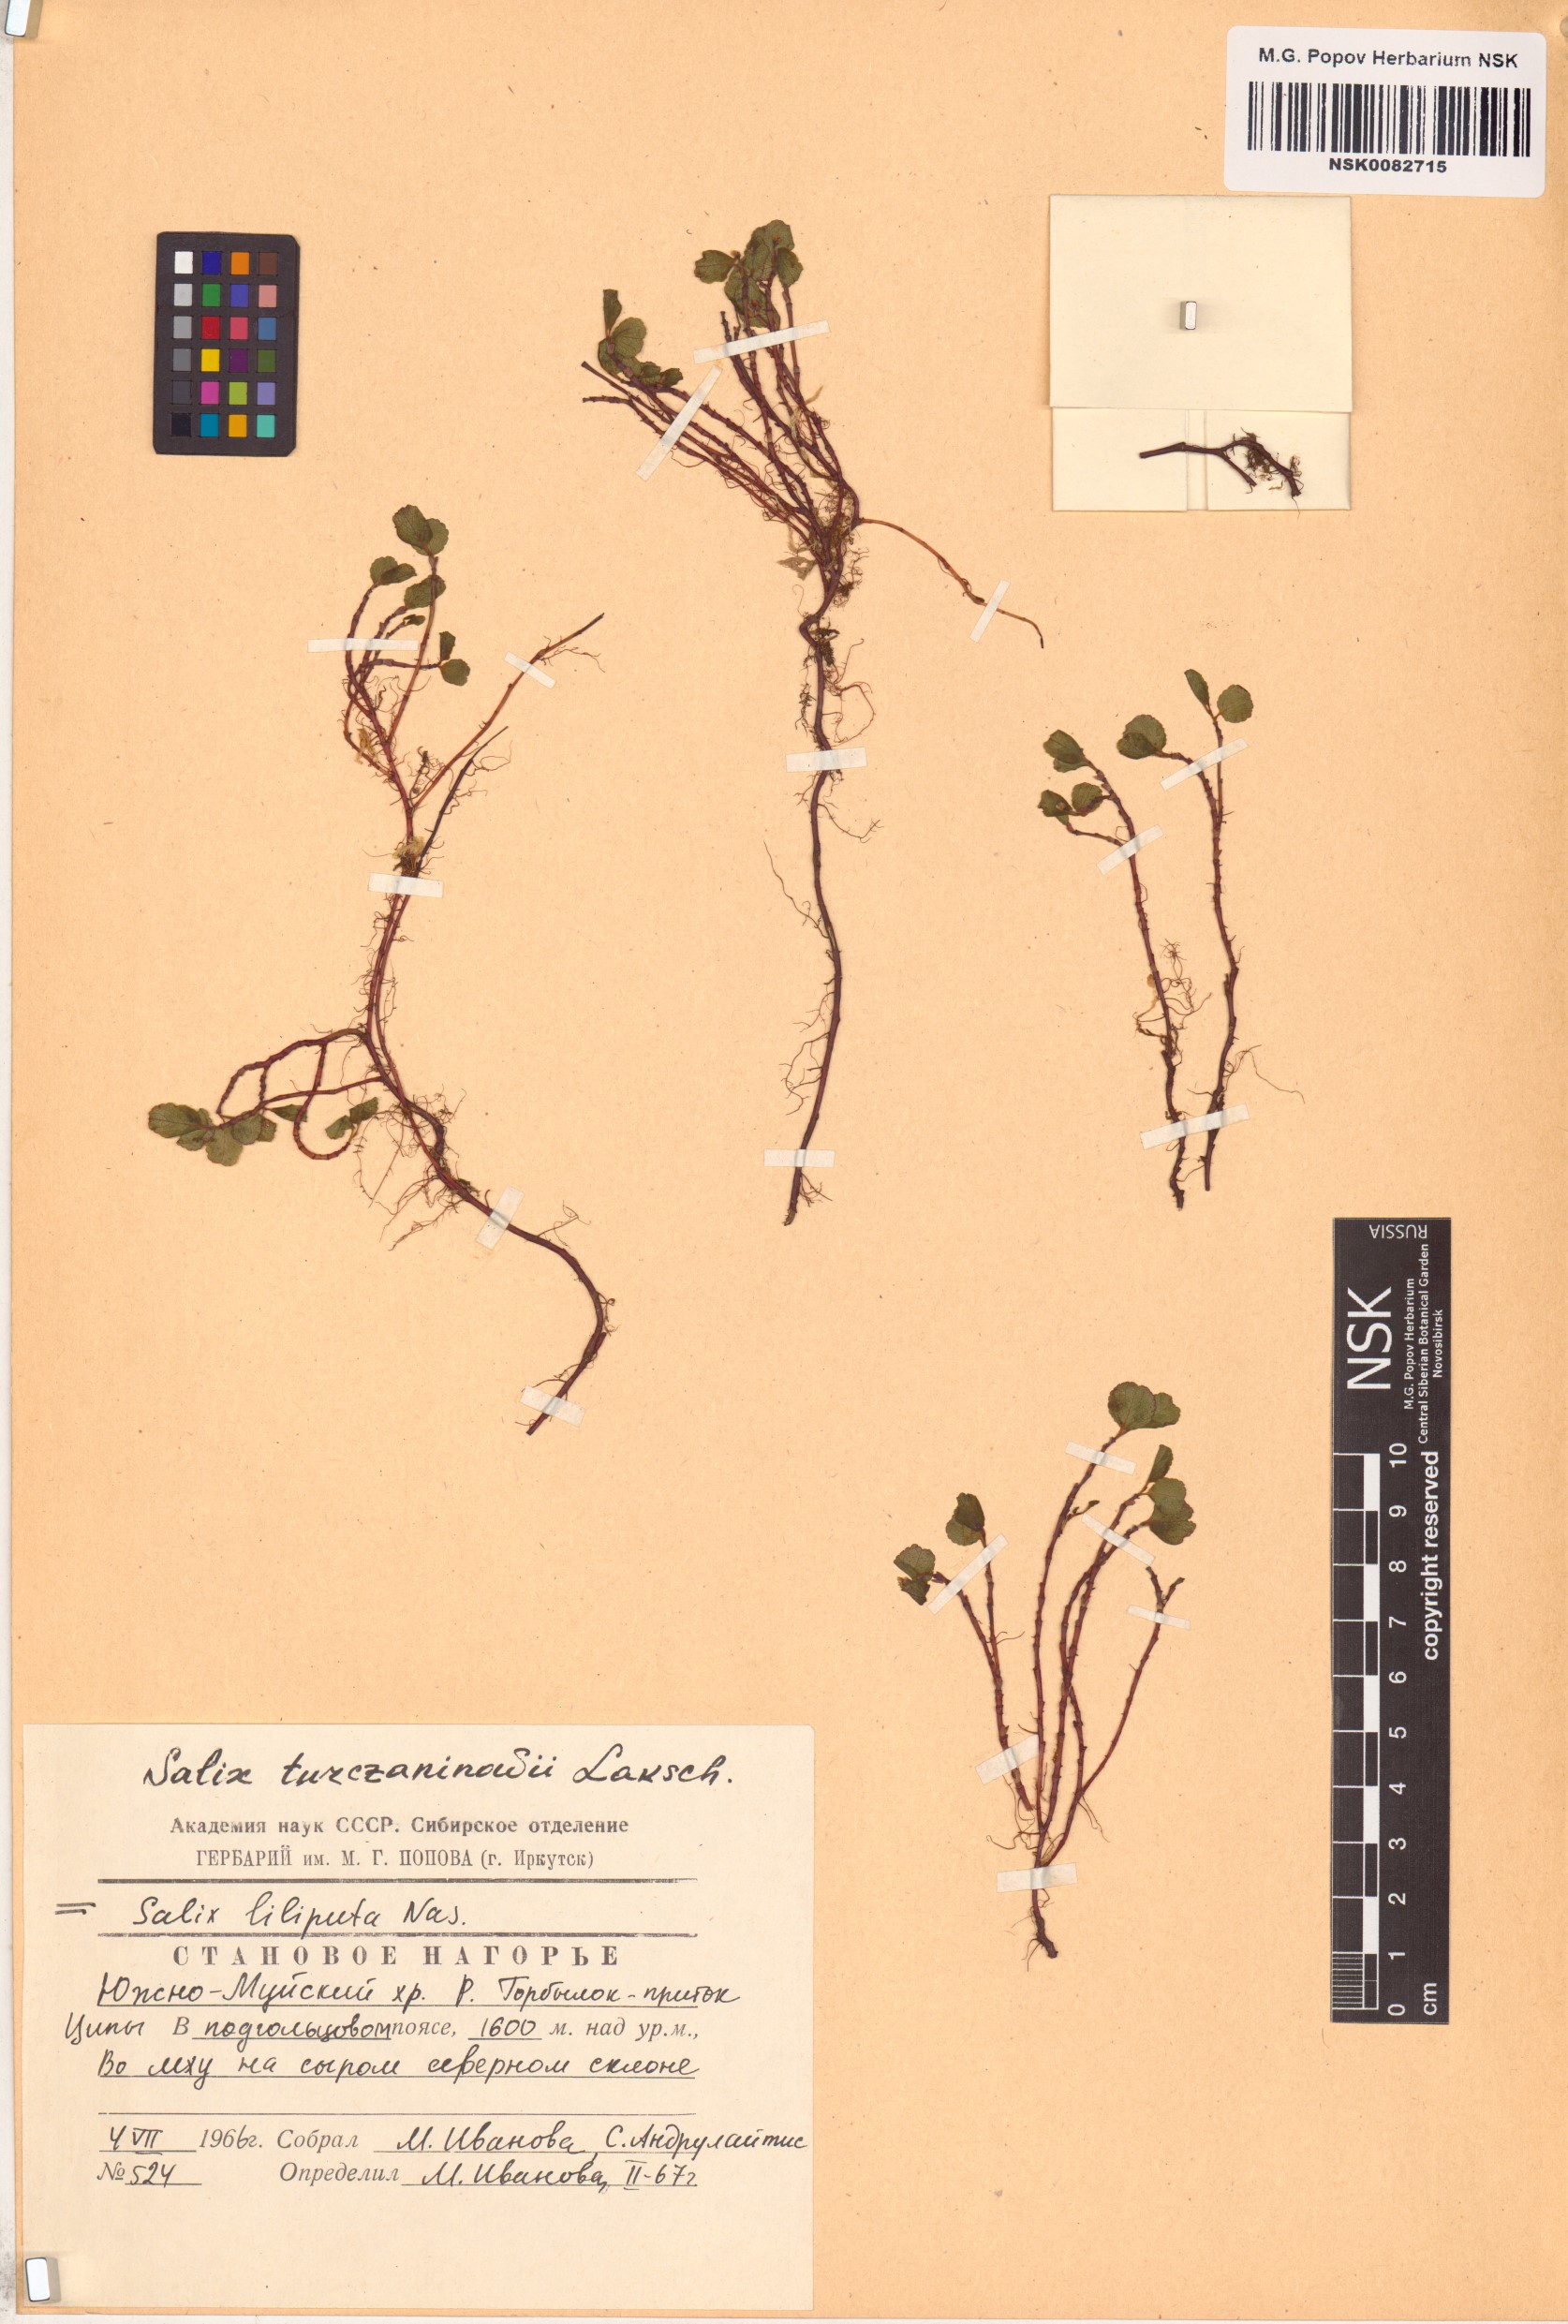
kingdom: Plantae
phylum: Tracheophyta
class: Magnoliopsida
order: Malpighiales
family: Salicaceae
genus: Salix
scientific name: Salix turczaninowii
